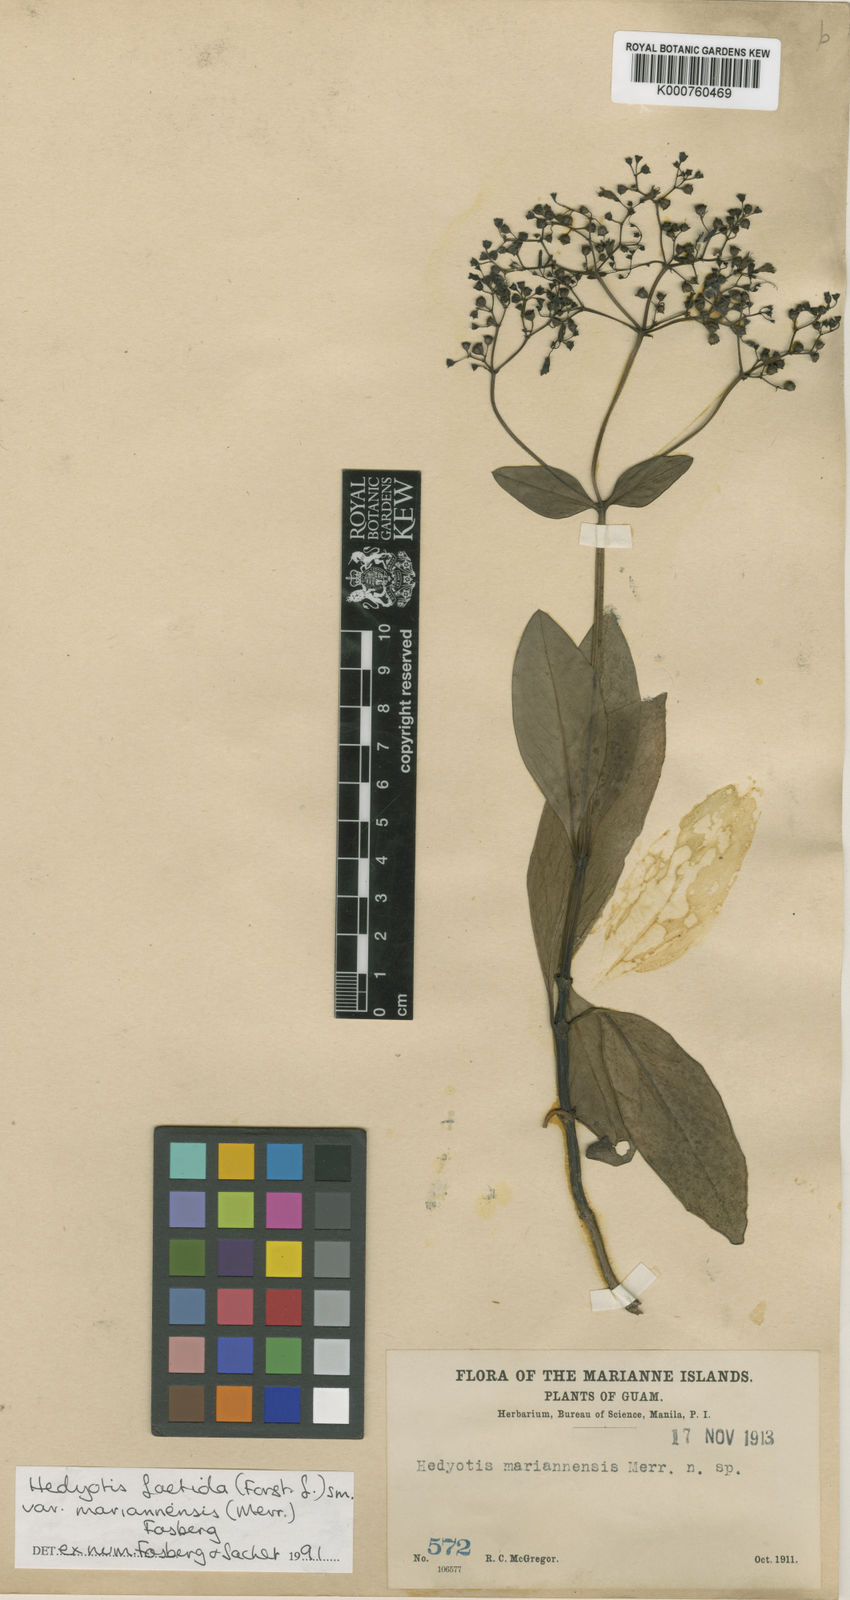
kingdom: Plantae
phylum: Tracheophyta
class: Magnoliopsida
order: Gentianales
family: Rubiaceae
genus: Leptopetalum
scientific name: Leptopetalum foetidum
